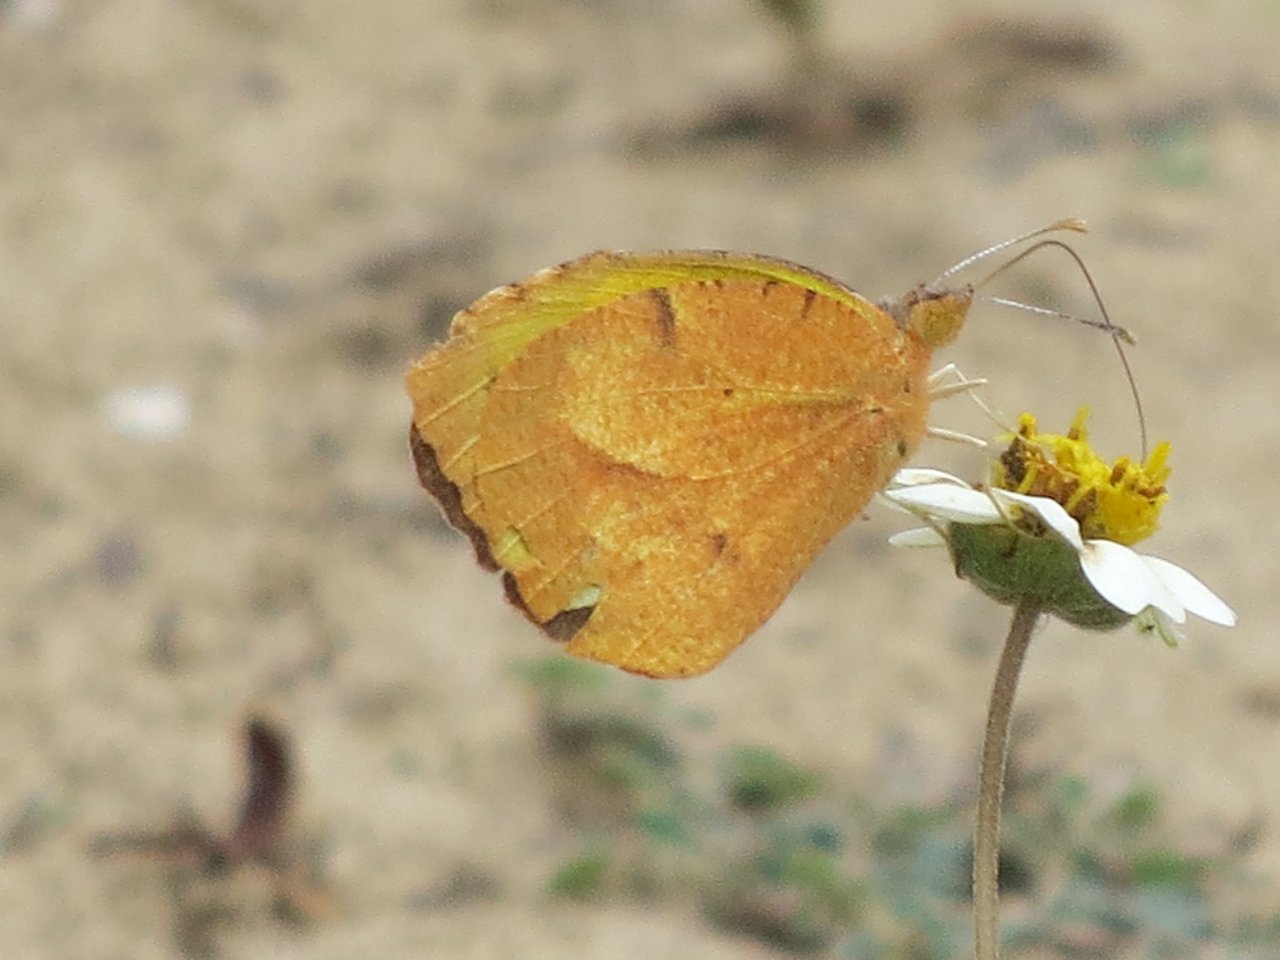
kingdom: Animalia
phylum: Arthropoda
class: Insecta
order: Lepidoptera
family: Pieridae
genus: Abaeis
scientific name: Abaeis nicippe
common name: Sleepy Orange
